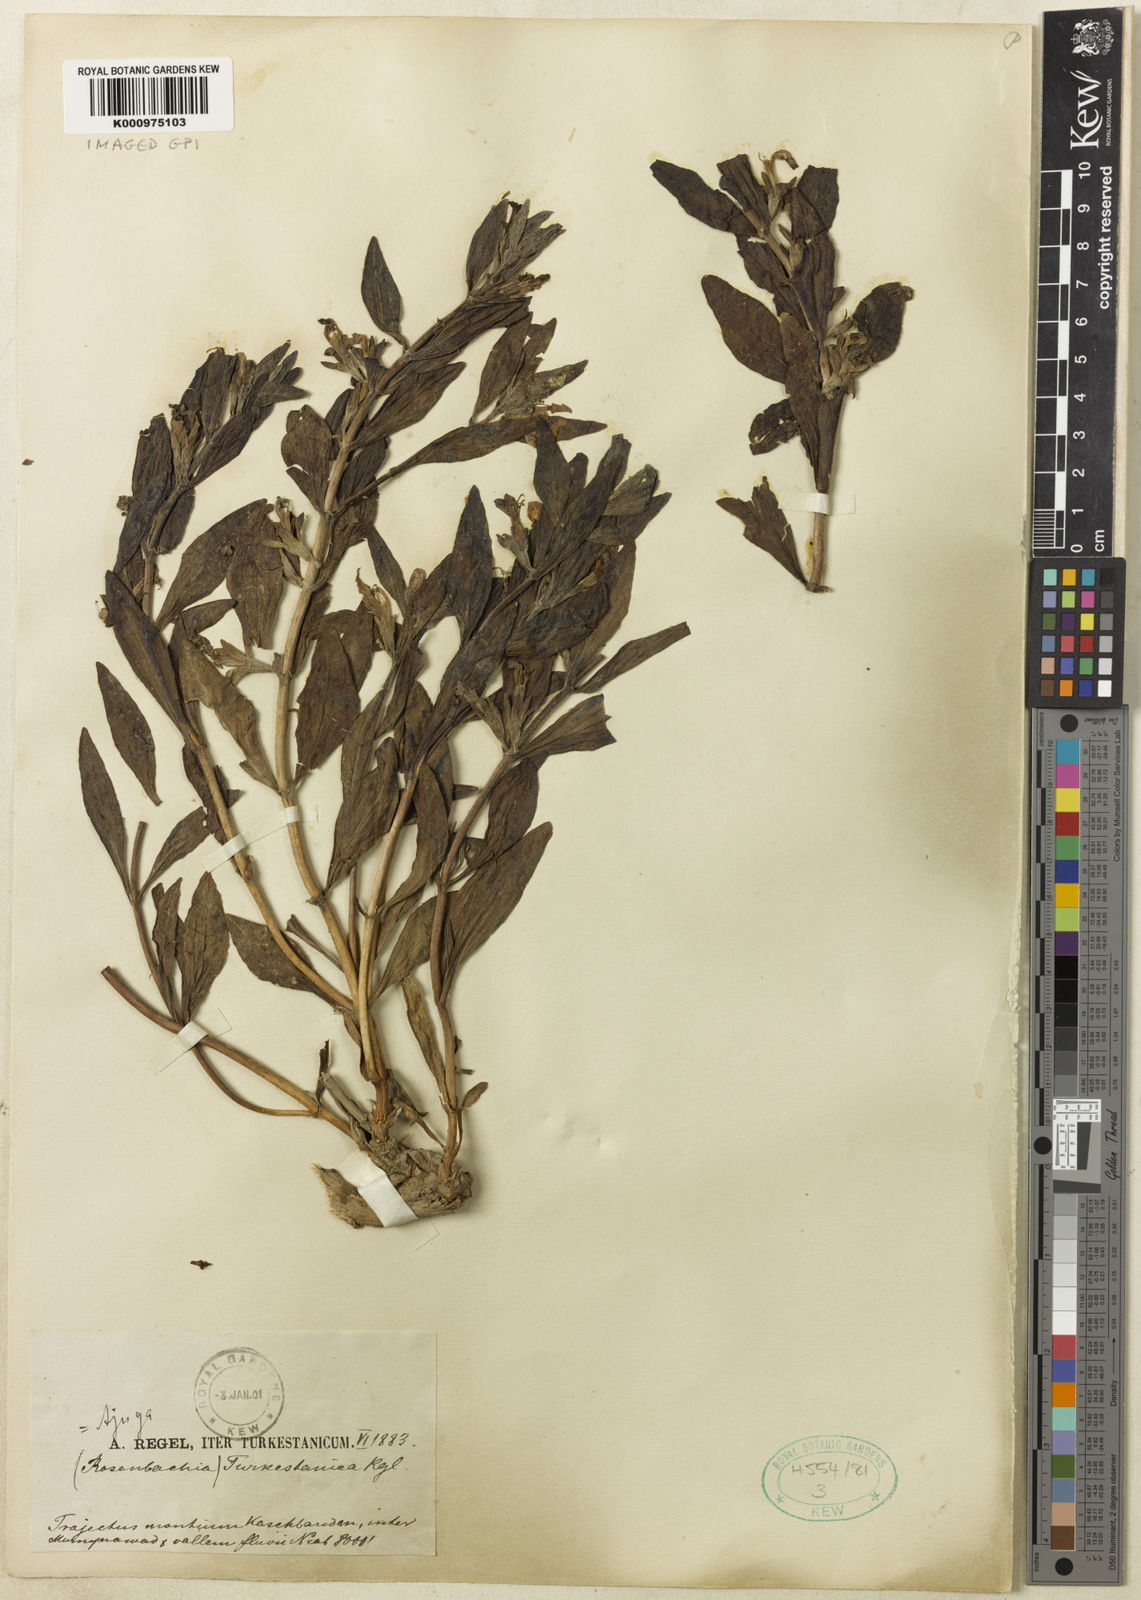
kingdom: Plantae
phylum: Tracheophyta
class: Magnoliopsida
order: Lamiales
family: Lamiaceae
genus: Ajuga
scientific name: Ajuga turkestanica
